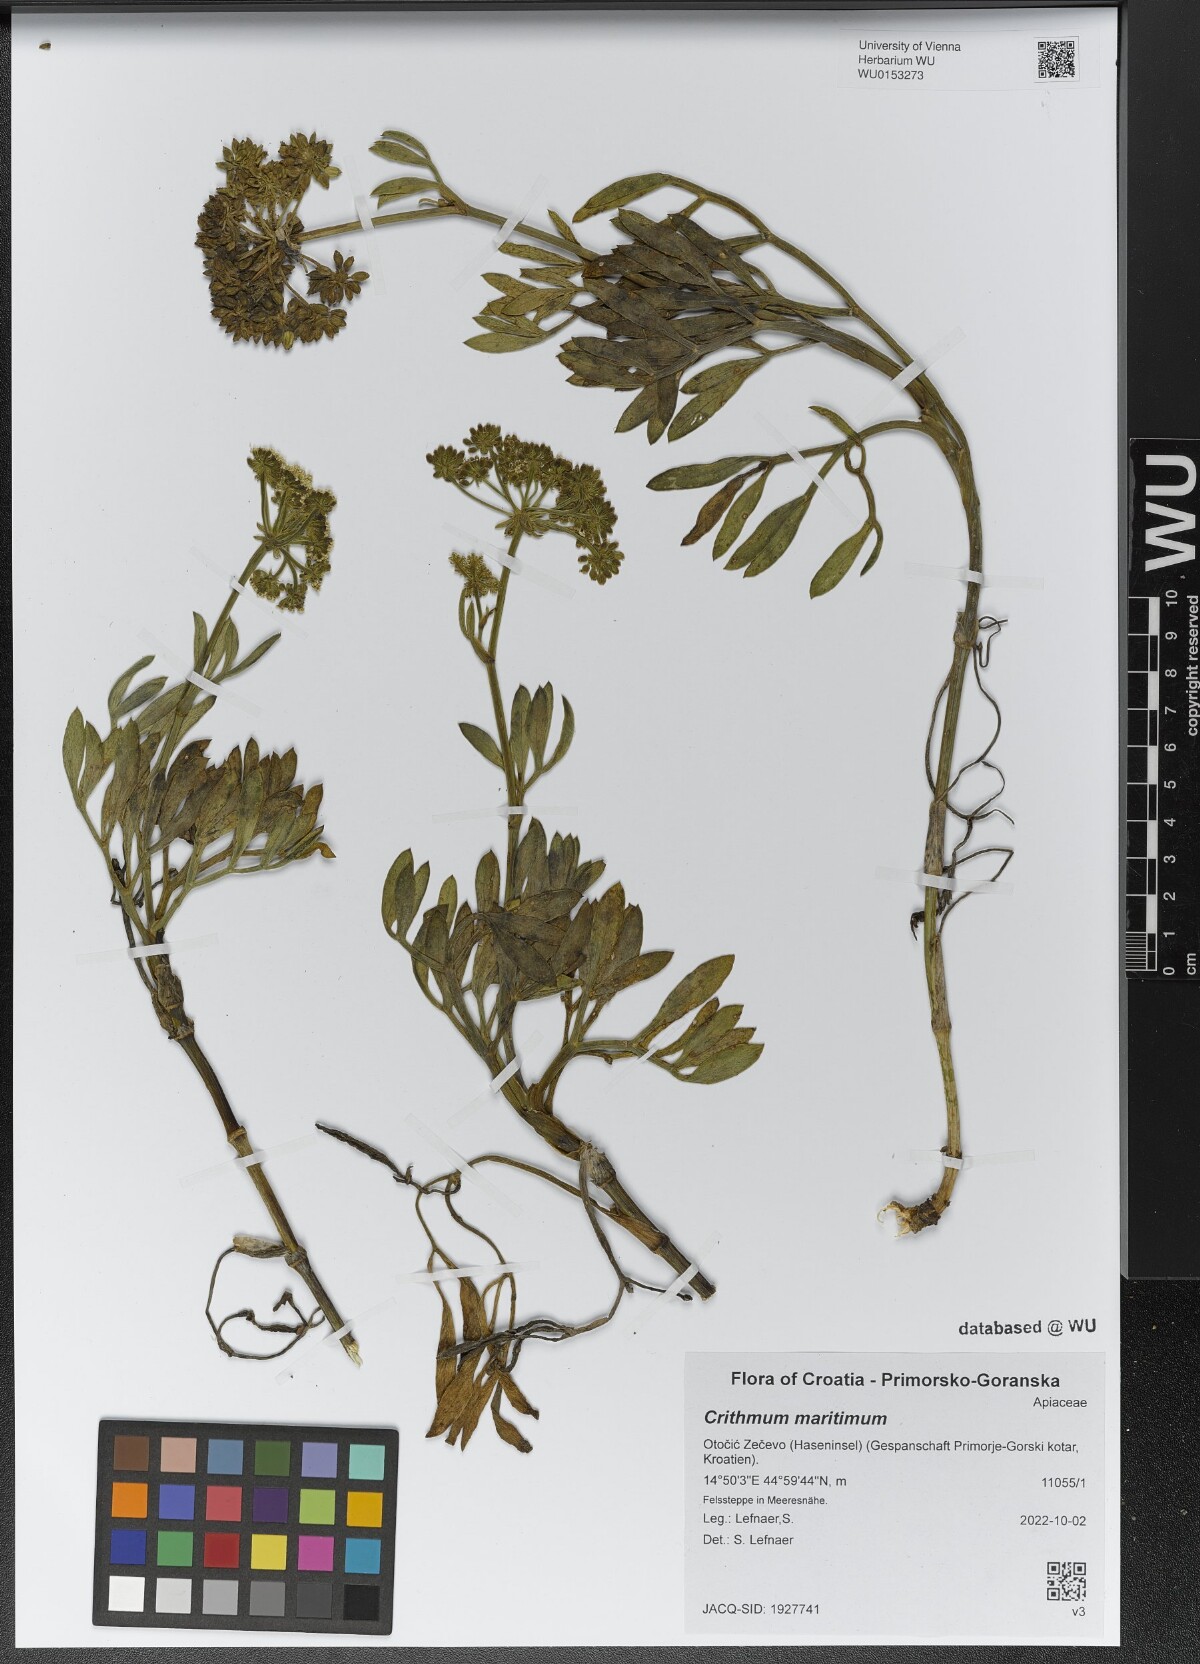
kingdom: Plantae
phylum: Tracheophyta
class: Magnoliopsida
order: Apiales
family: Apiaceae
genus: Crithmum
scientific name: Crithmum maritimum
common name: Rock samphire
